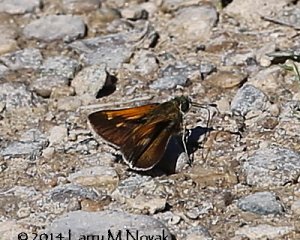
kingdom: Animalia
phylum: Arthropoda
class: Insecta
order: Lepidoptera
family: Hesperiidae
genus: Polites
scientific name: Polites themistocles
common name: Tawny-edged Skipper
